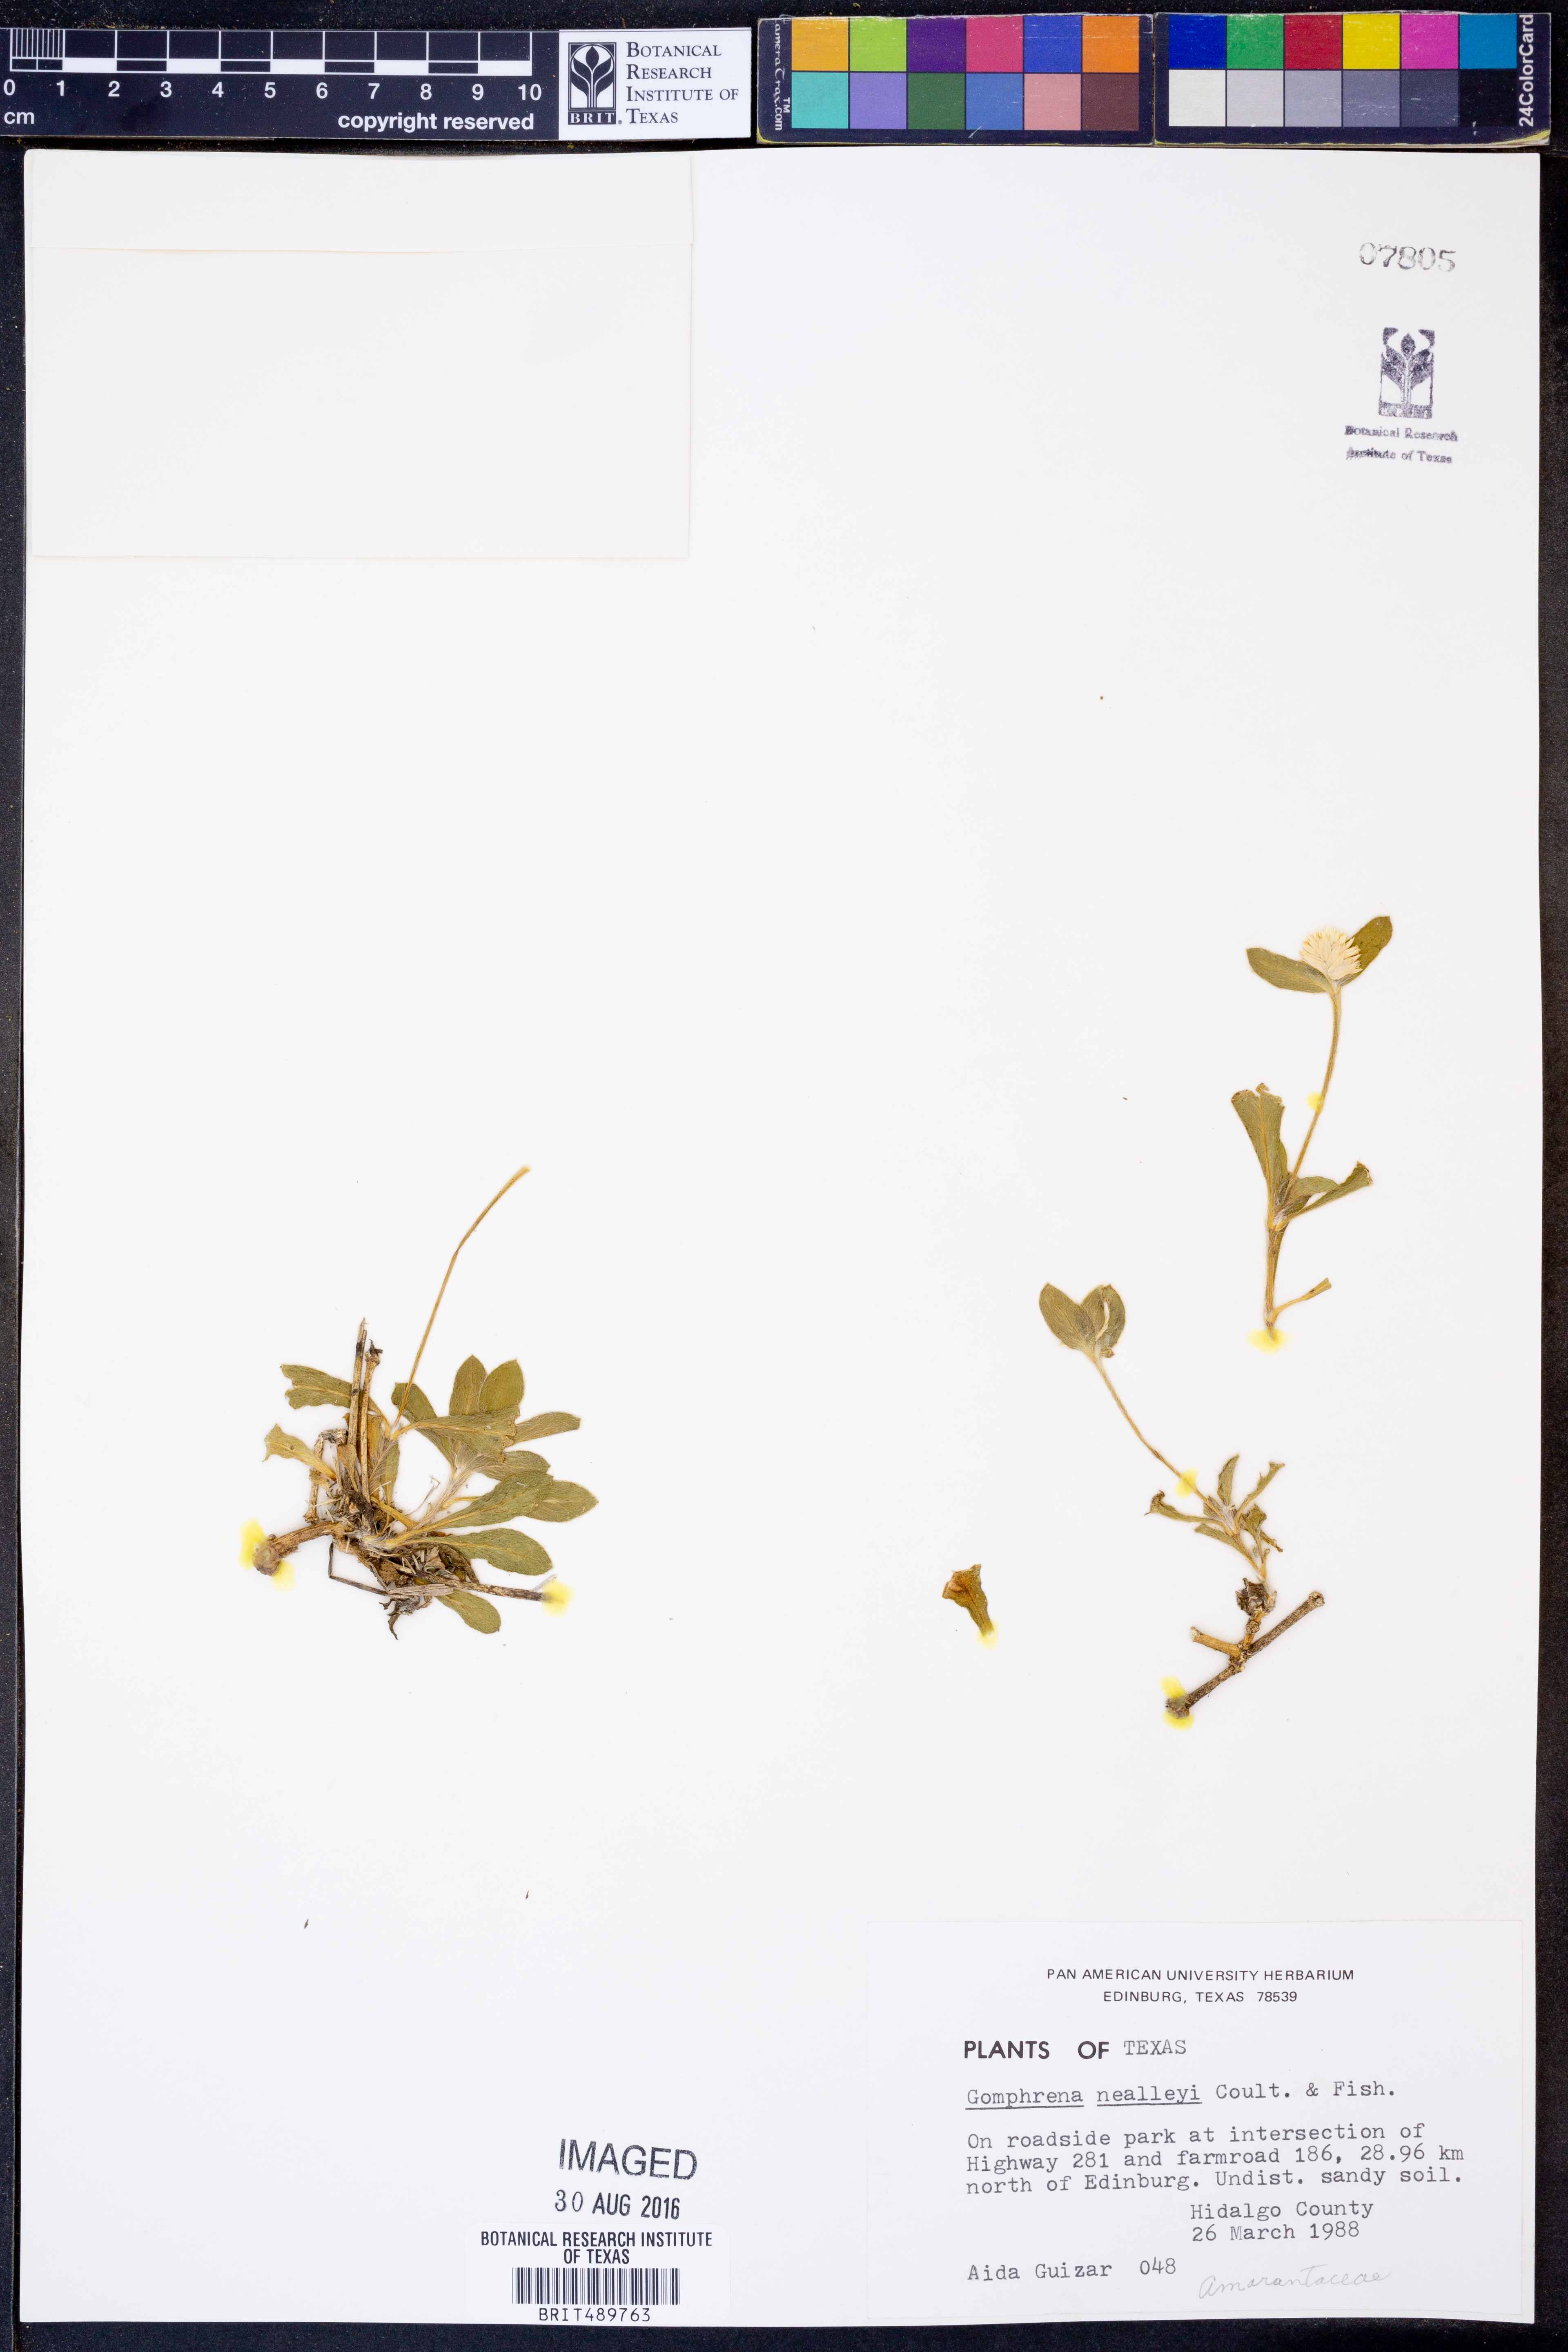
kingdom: Plantae
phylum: Tracheophyta
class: Magnoliopsida
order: Caryophyllales
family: Amaranthaceae
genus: Gomphrena
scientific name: Gomphrena nealleyi
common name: Nealley's globe-amaranth
